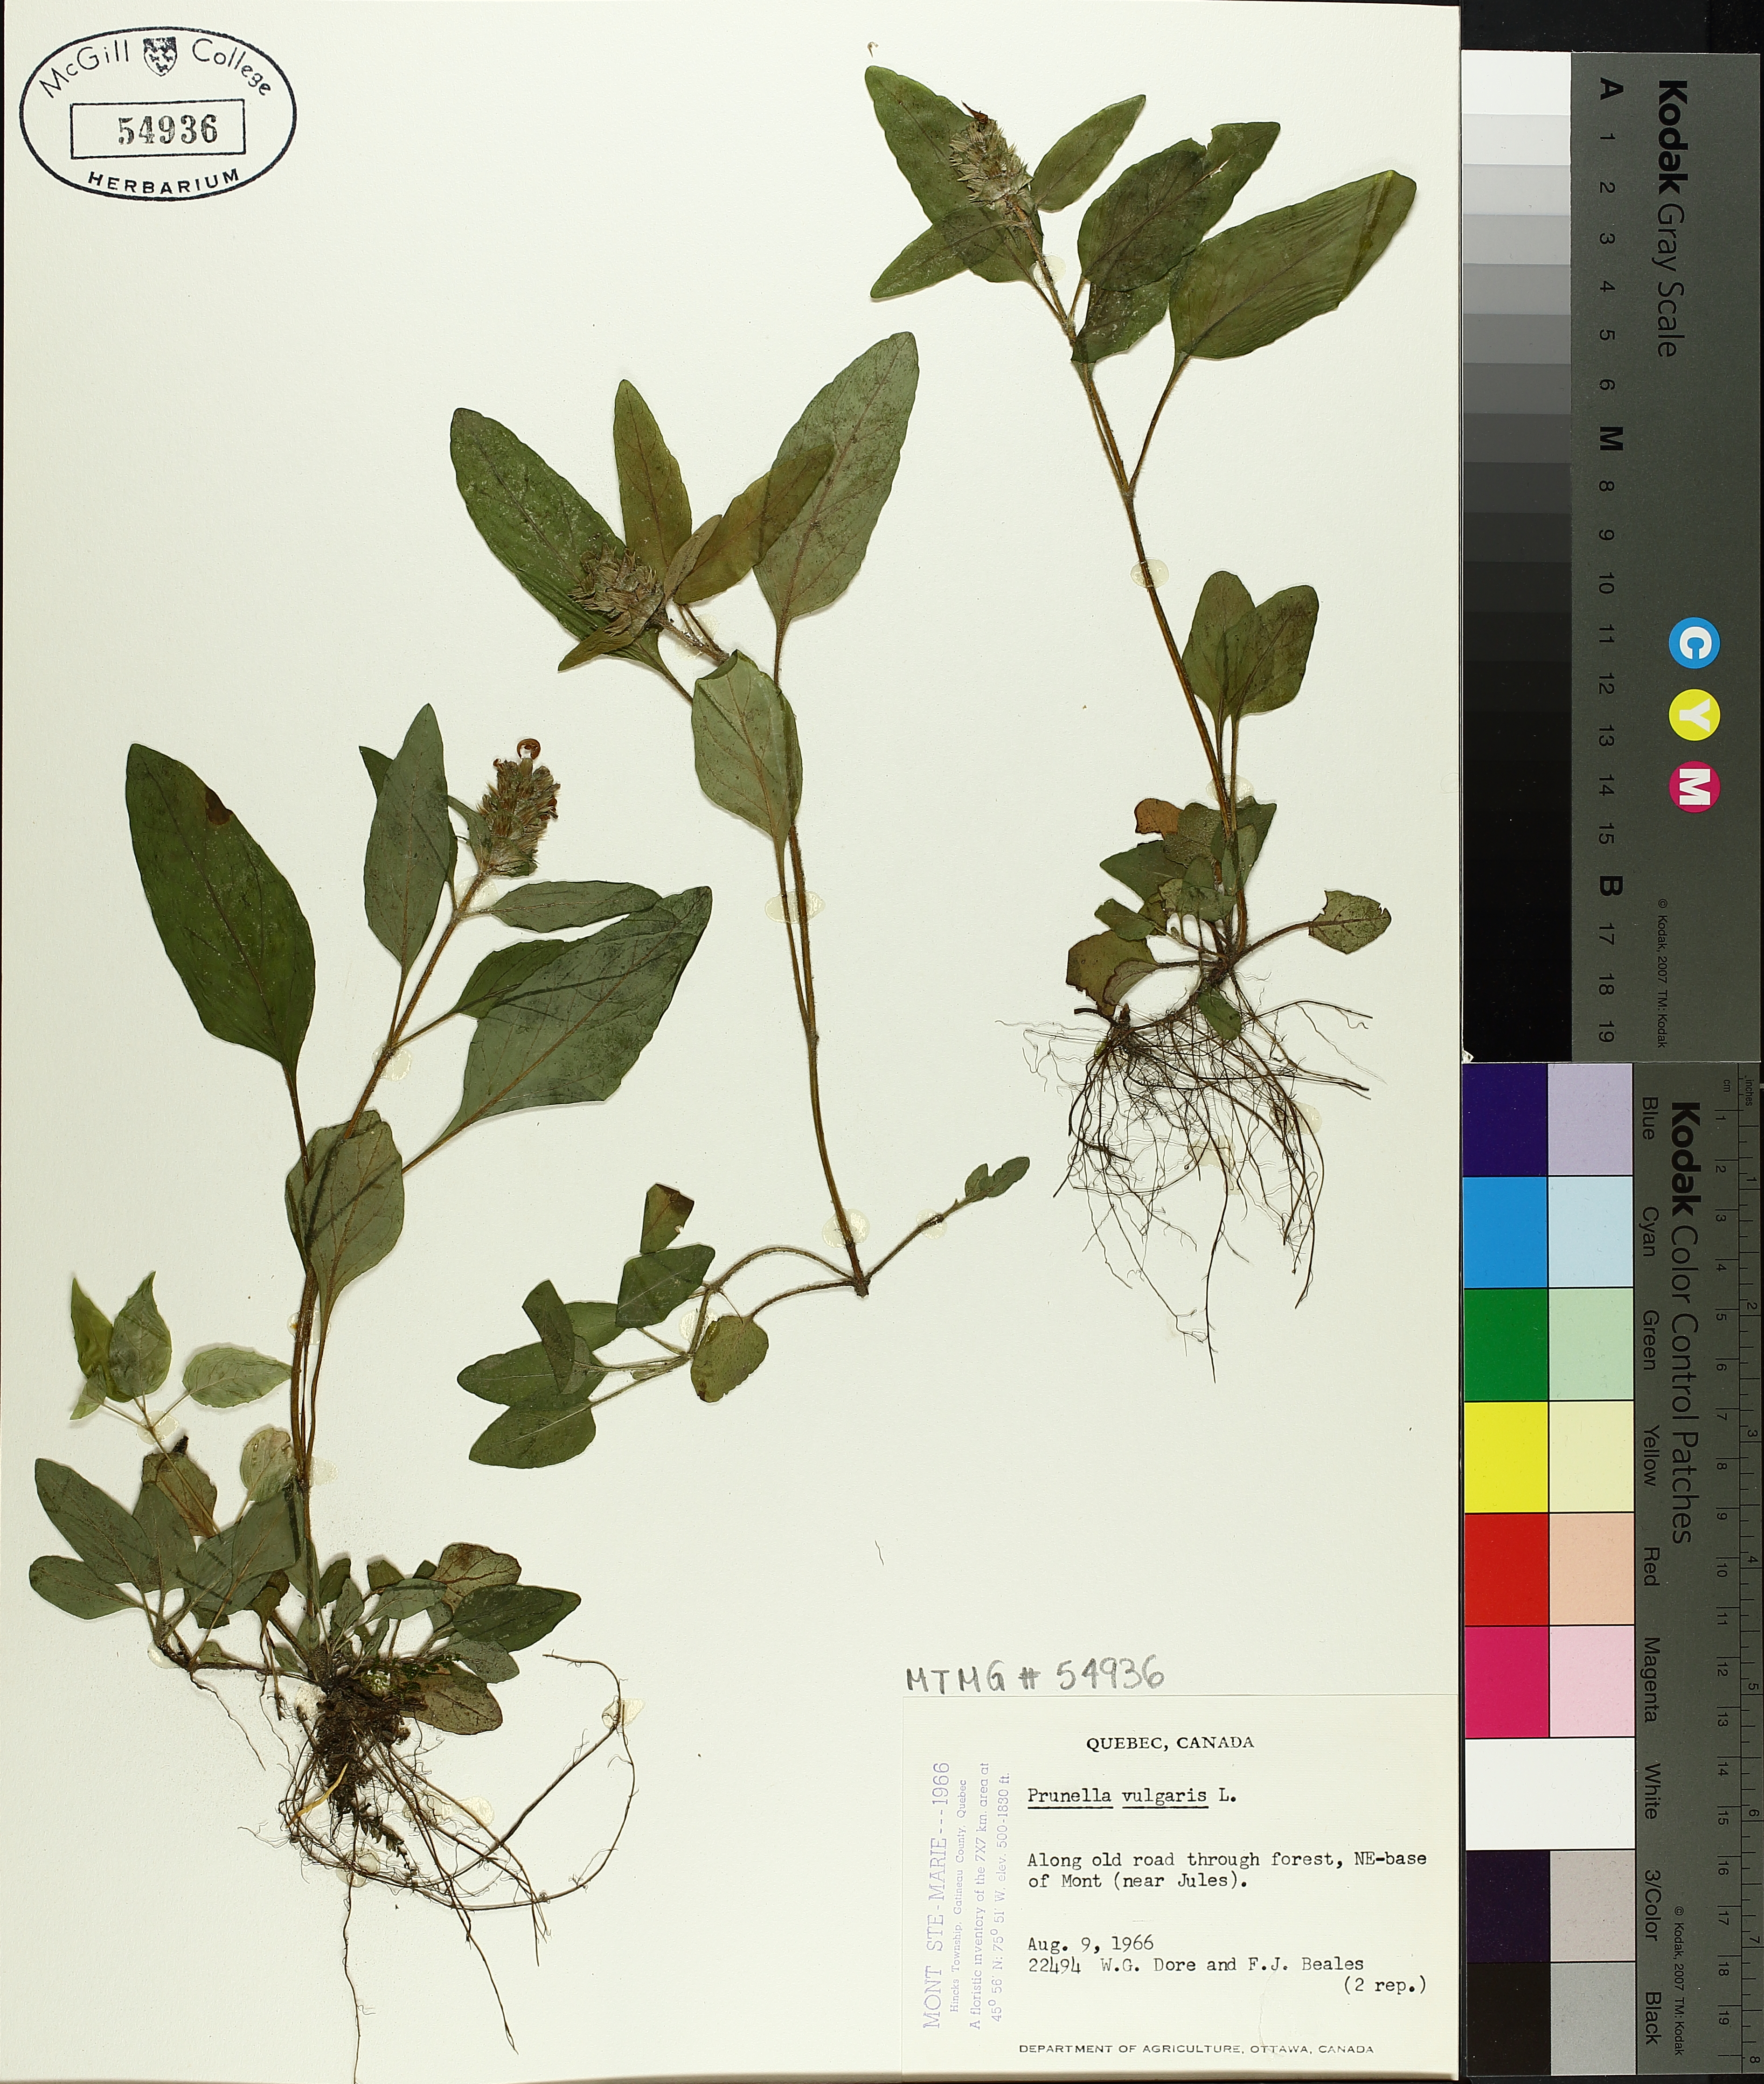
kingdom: Plantae
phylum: Tracheophyta
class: Magnoliopsida
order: Lamiales
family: Lamiaceae
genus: Prunella
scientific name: Prunella vulgaris
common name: Heal-all
